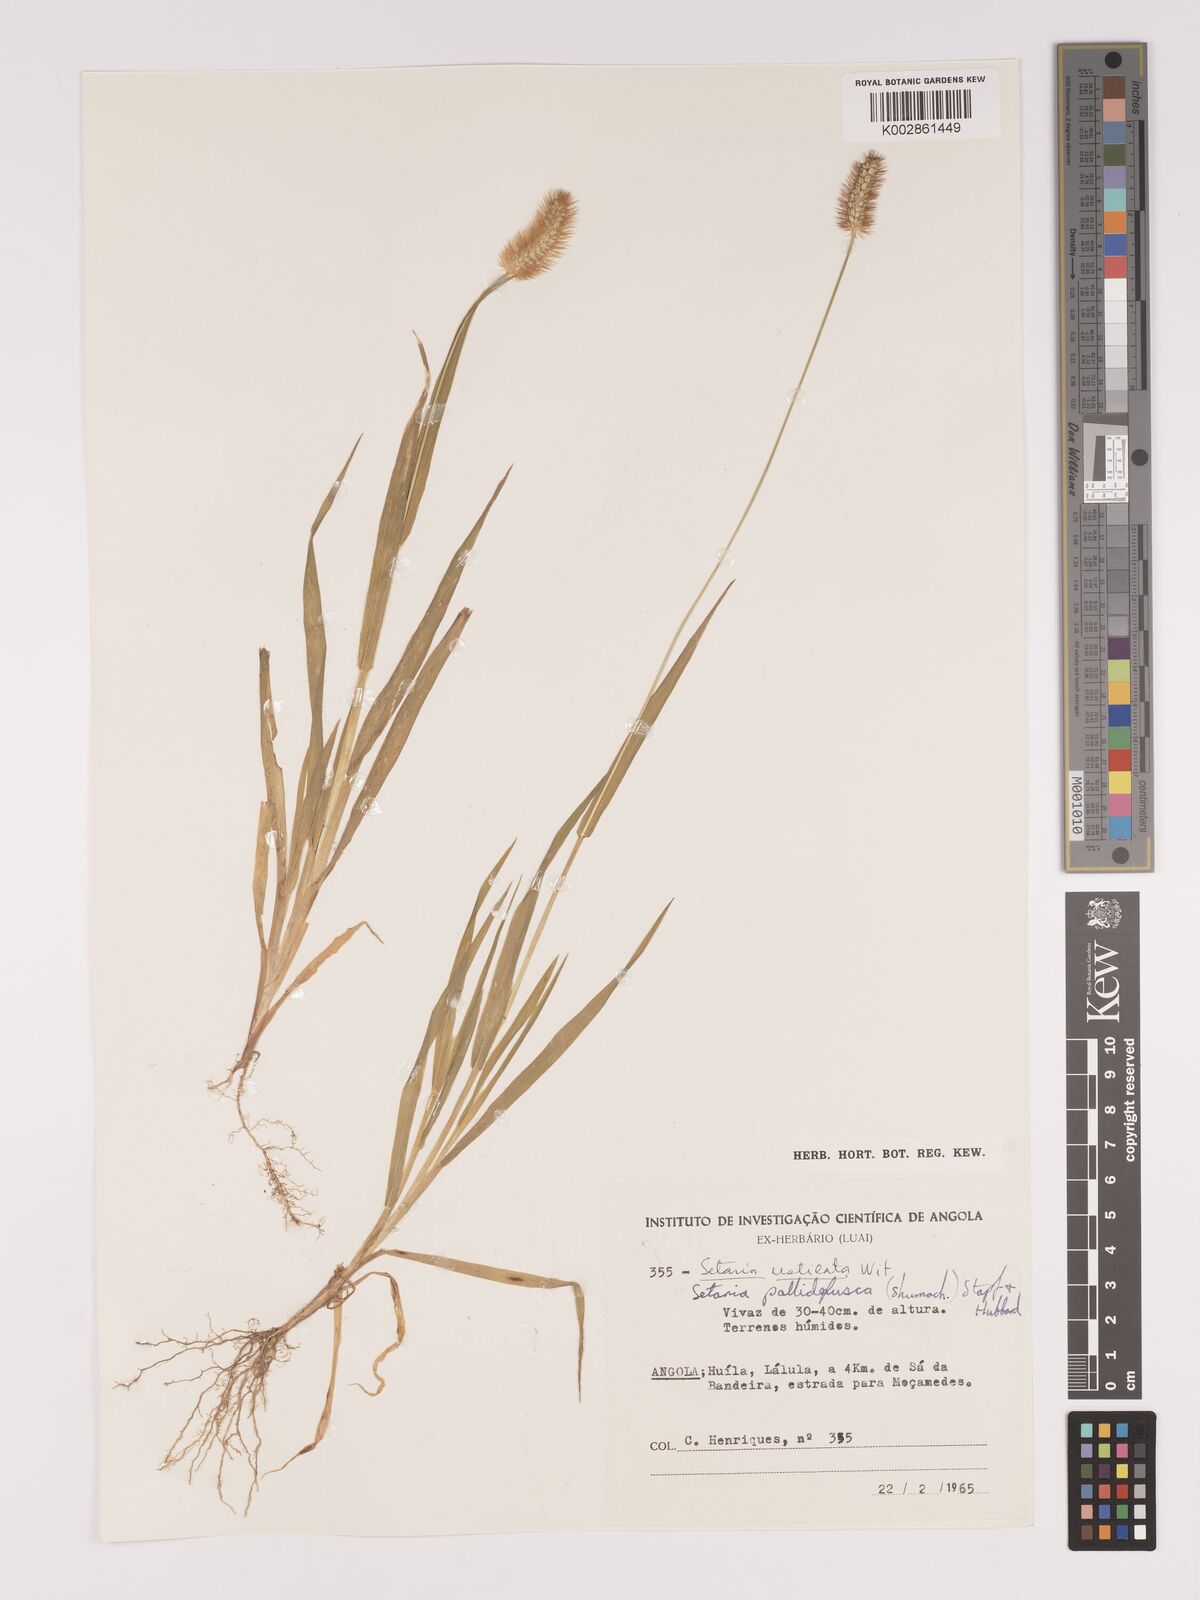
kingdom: Plantae
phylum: Tracheophyta
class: Liliopsida
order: Poales
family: Poaceae
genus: Setaria
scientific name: Setaria pumila
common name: Yellow bristle-grass
